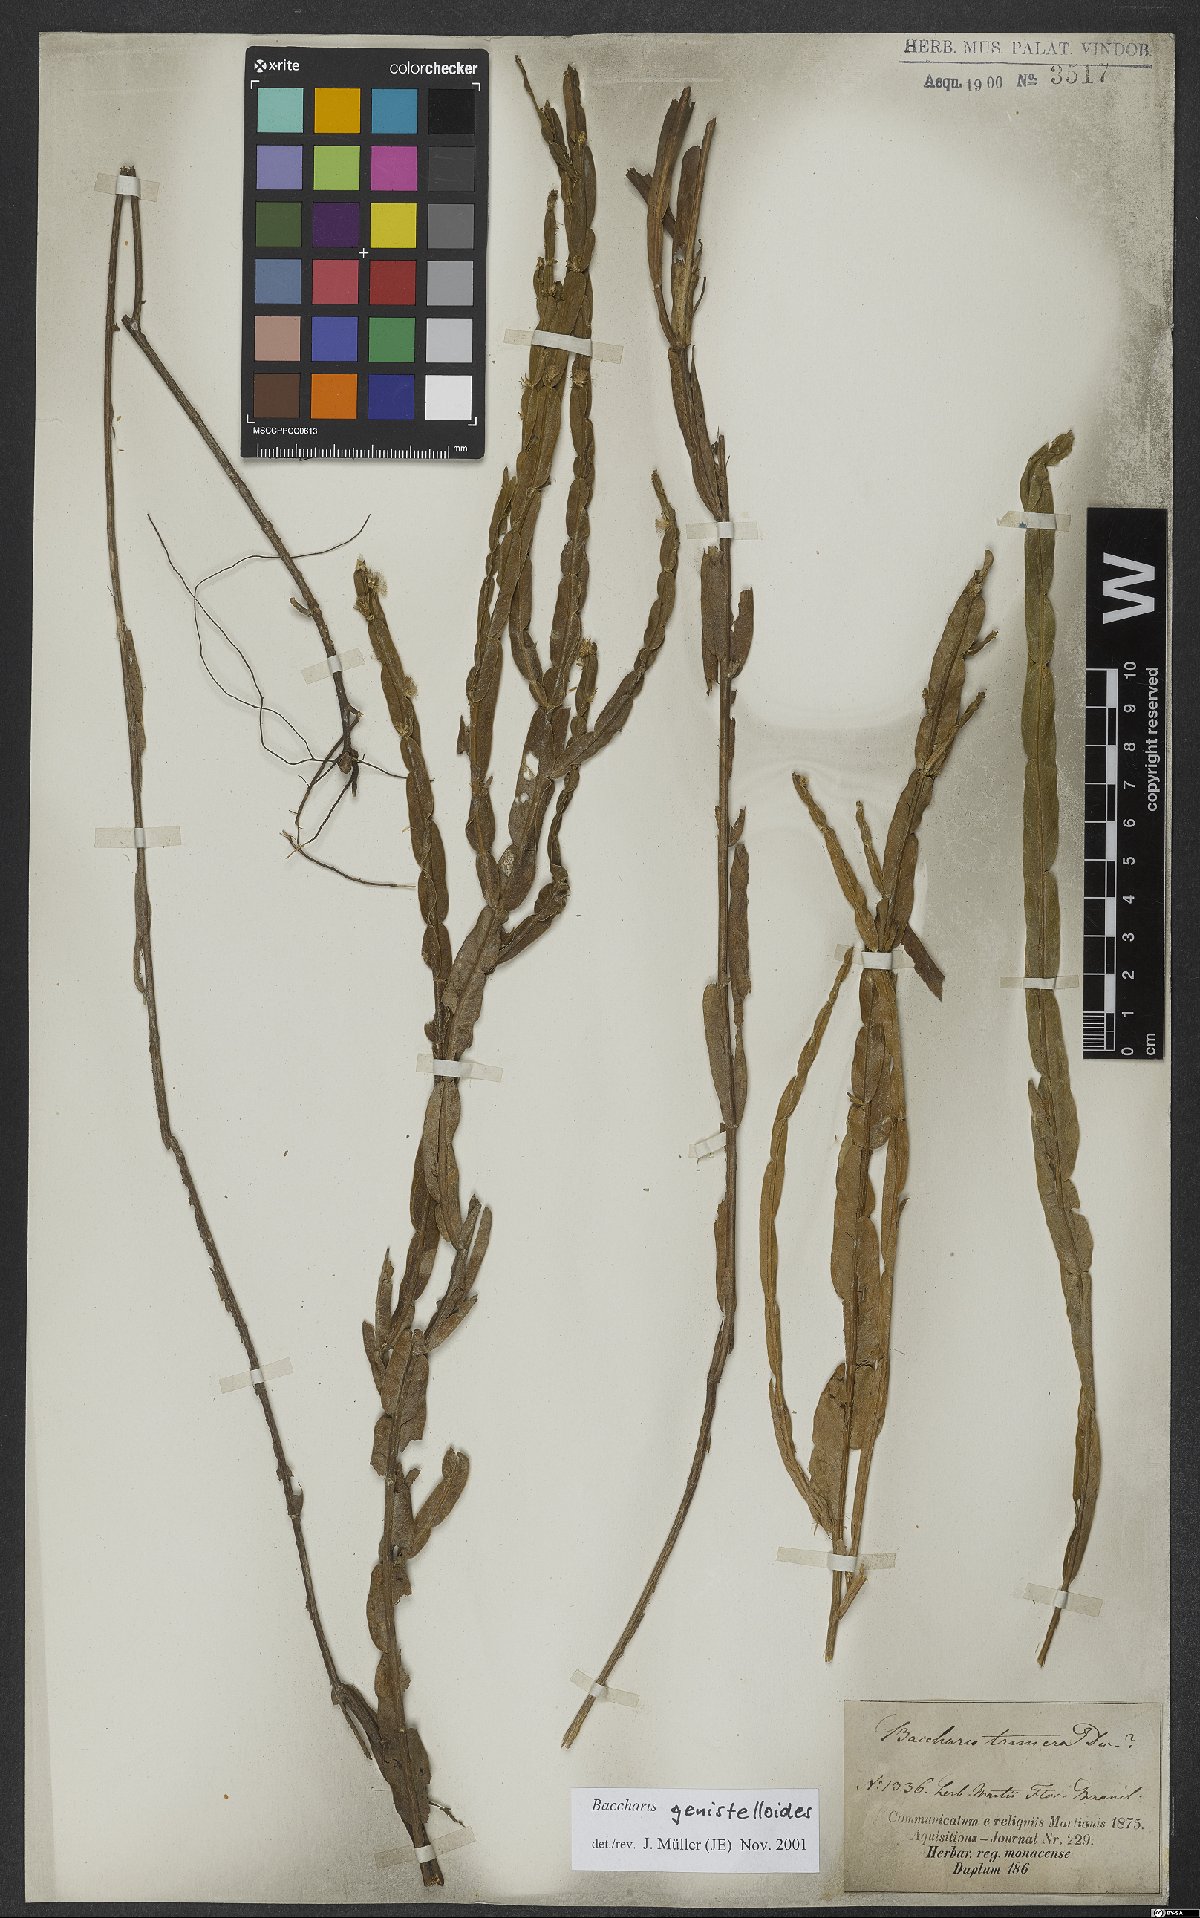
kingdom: Plantae
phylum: Tracheophyta
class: Magnoliopsida
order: Asterales
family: Asteraceae
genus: Baccharis
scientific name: Baccharis genistelloides
